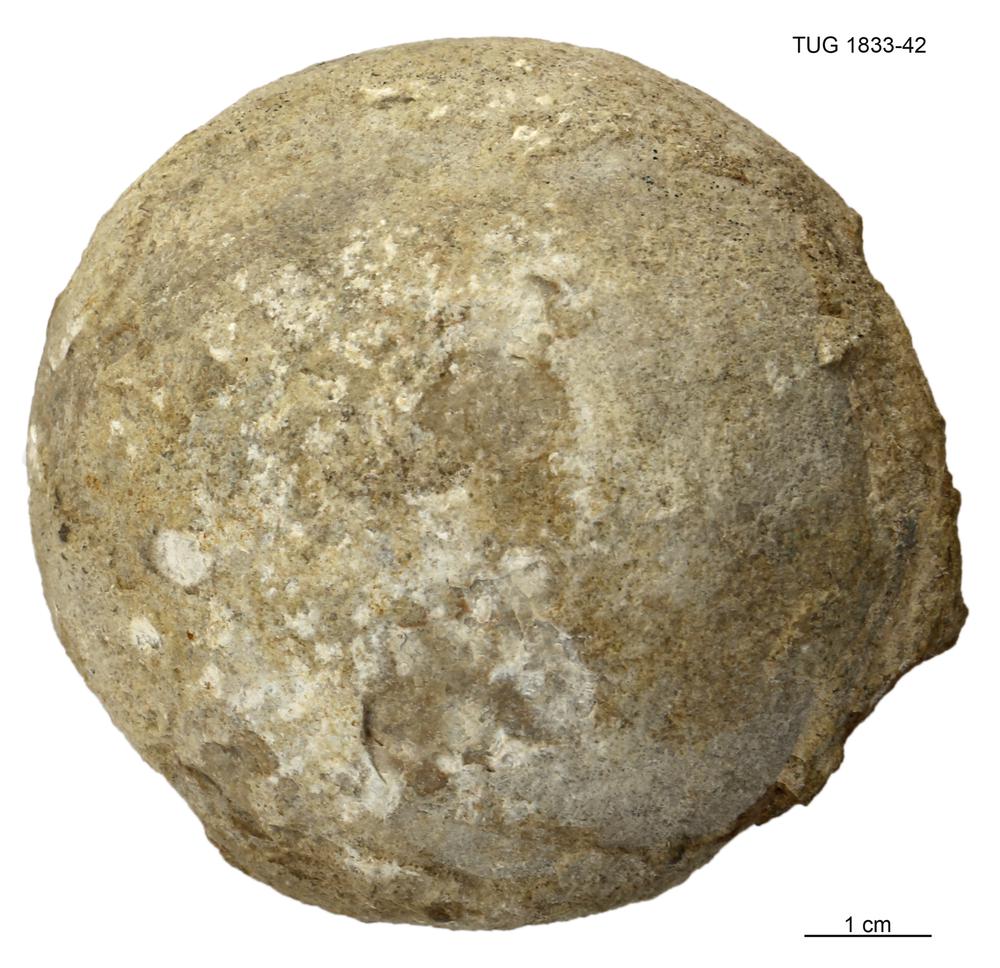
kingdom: Animalia
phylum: Porifera
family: Stromatoporidae
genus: Stromatopora
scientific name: Stromatopora
